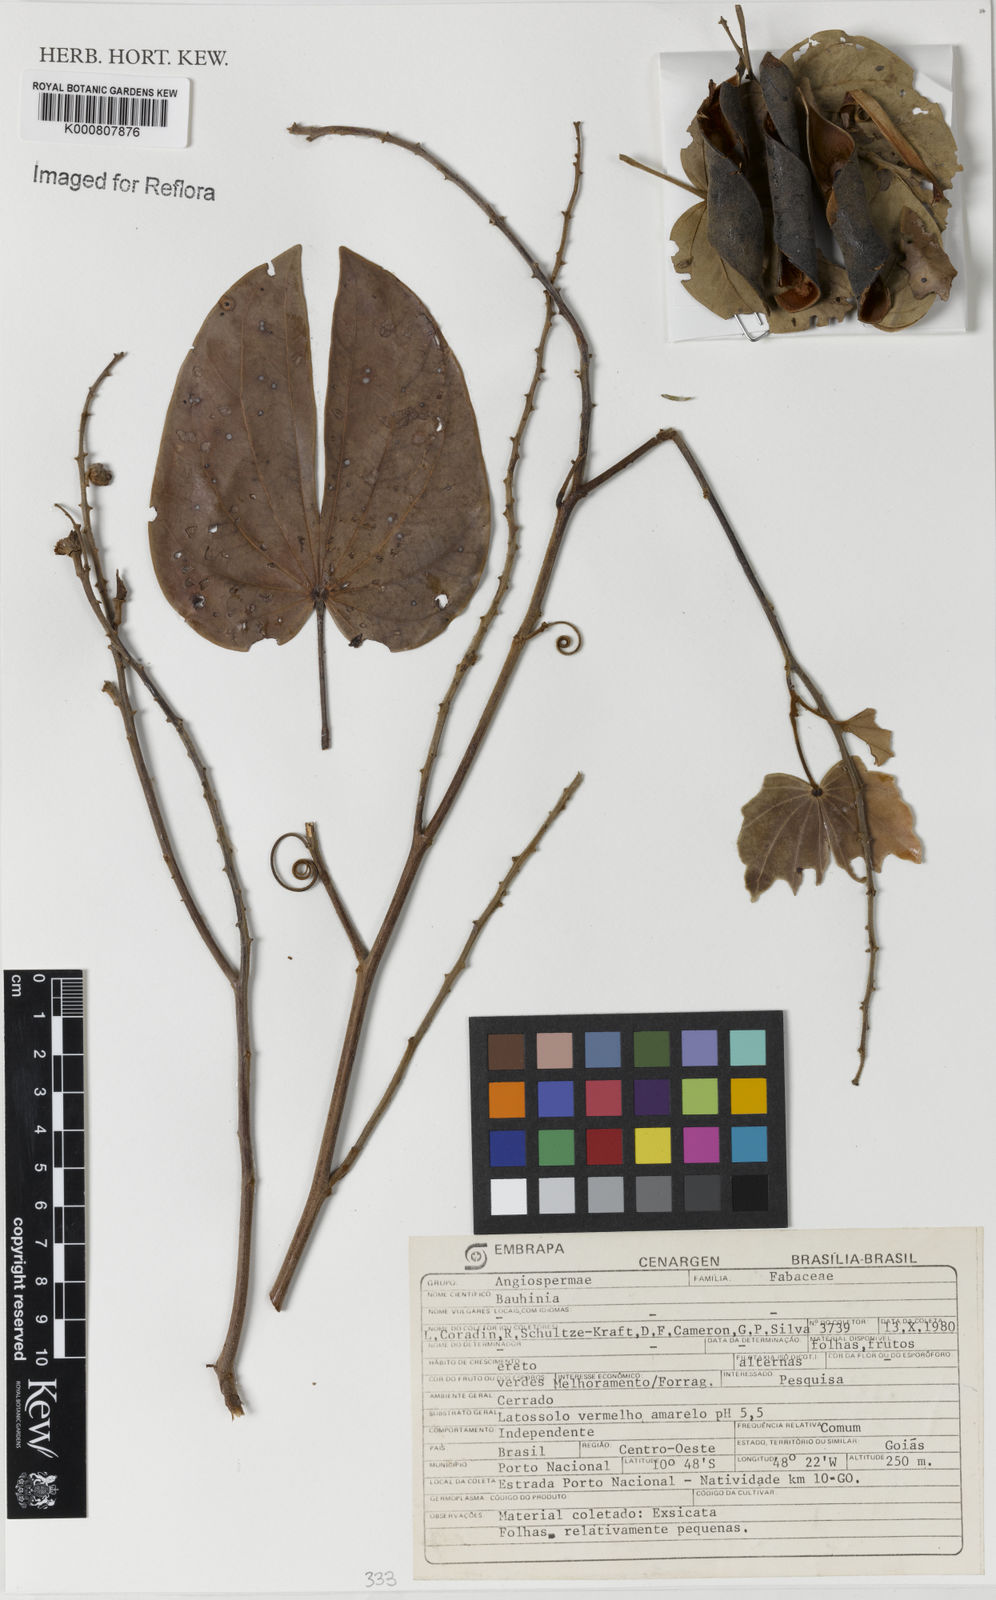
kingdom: Plantae
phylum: Tracheophyta
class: Magnoliopsida
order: Fabales
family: Fabaceae
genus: Bauhinia
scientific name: Bauhinia
